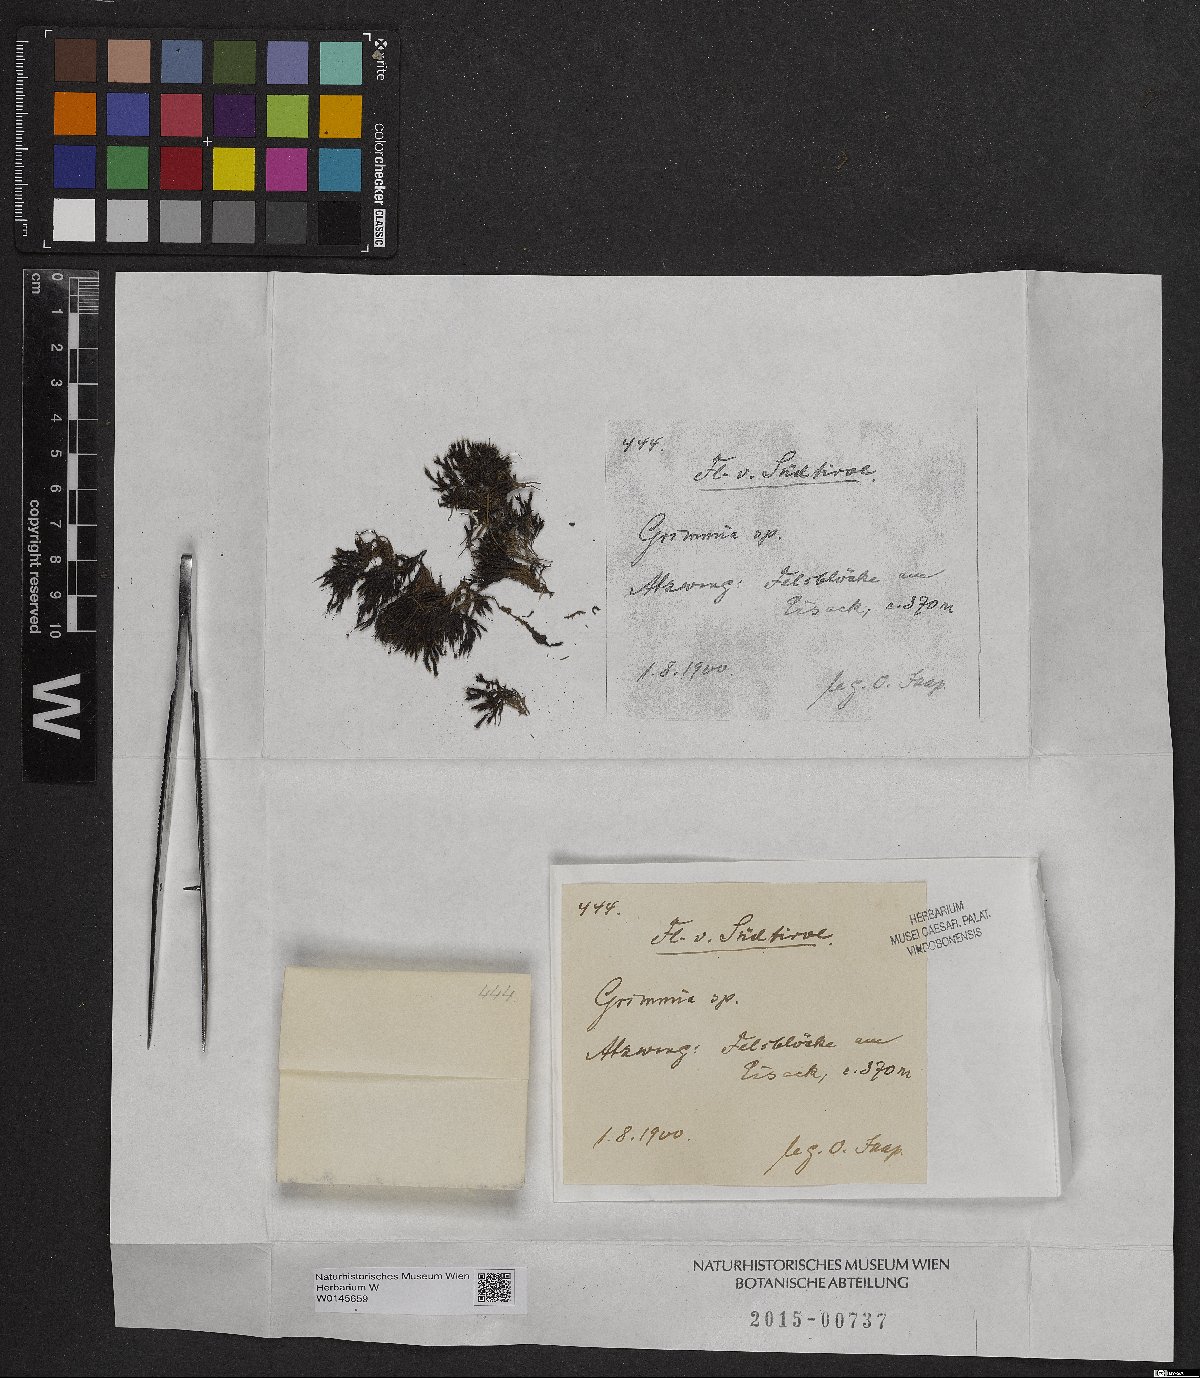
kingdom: Plantae
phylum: Bryophyta
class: Bryopsida
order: Grimmiales
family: Grimmiaceae
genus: Grimmia
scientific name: Grimmia
